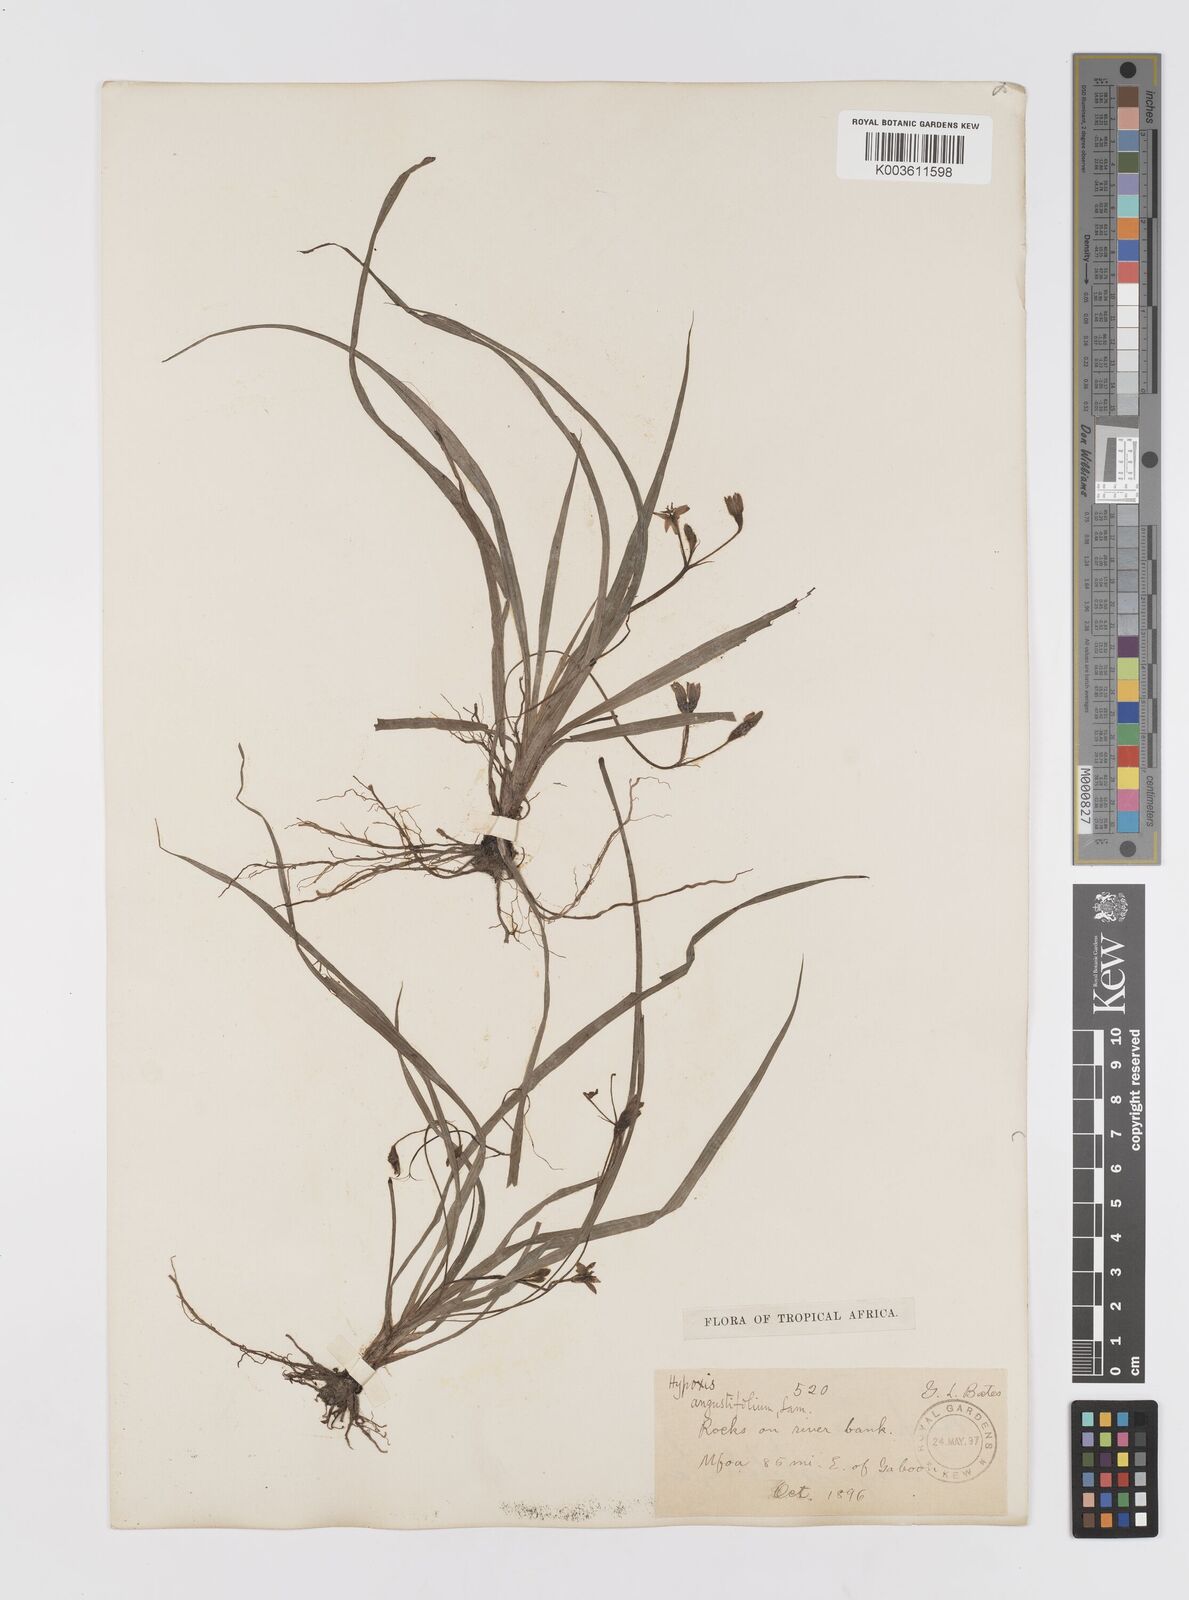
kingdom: Plantae
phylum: Tracheophyta
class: Liliopsida
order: Asparagales
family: Hypoxidaceae
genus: Hypoxis
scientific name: Hypoxis angustifolia
